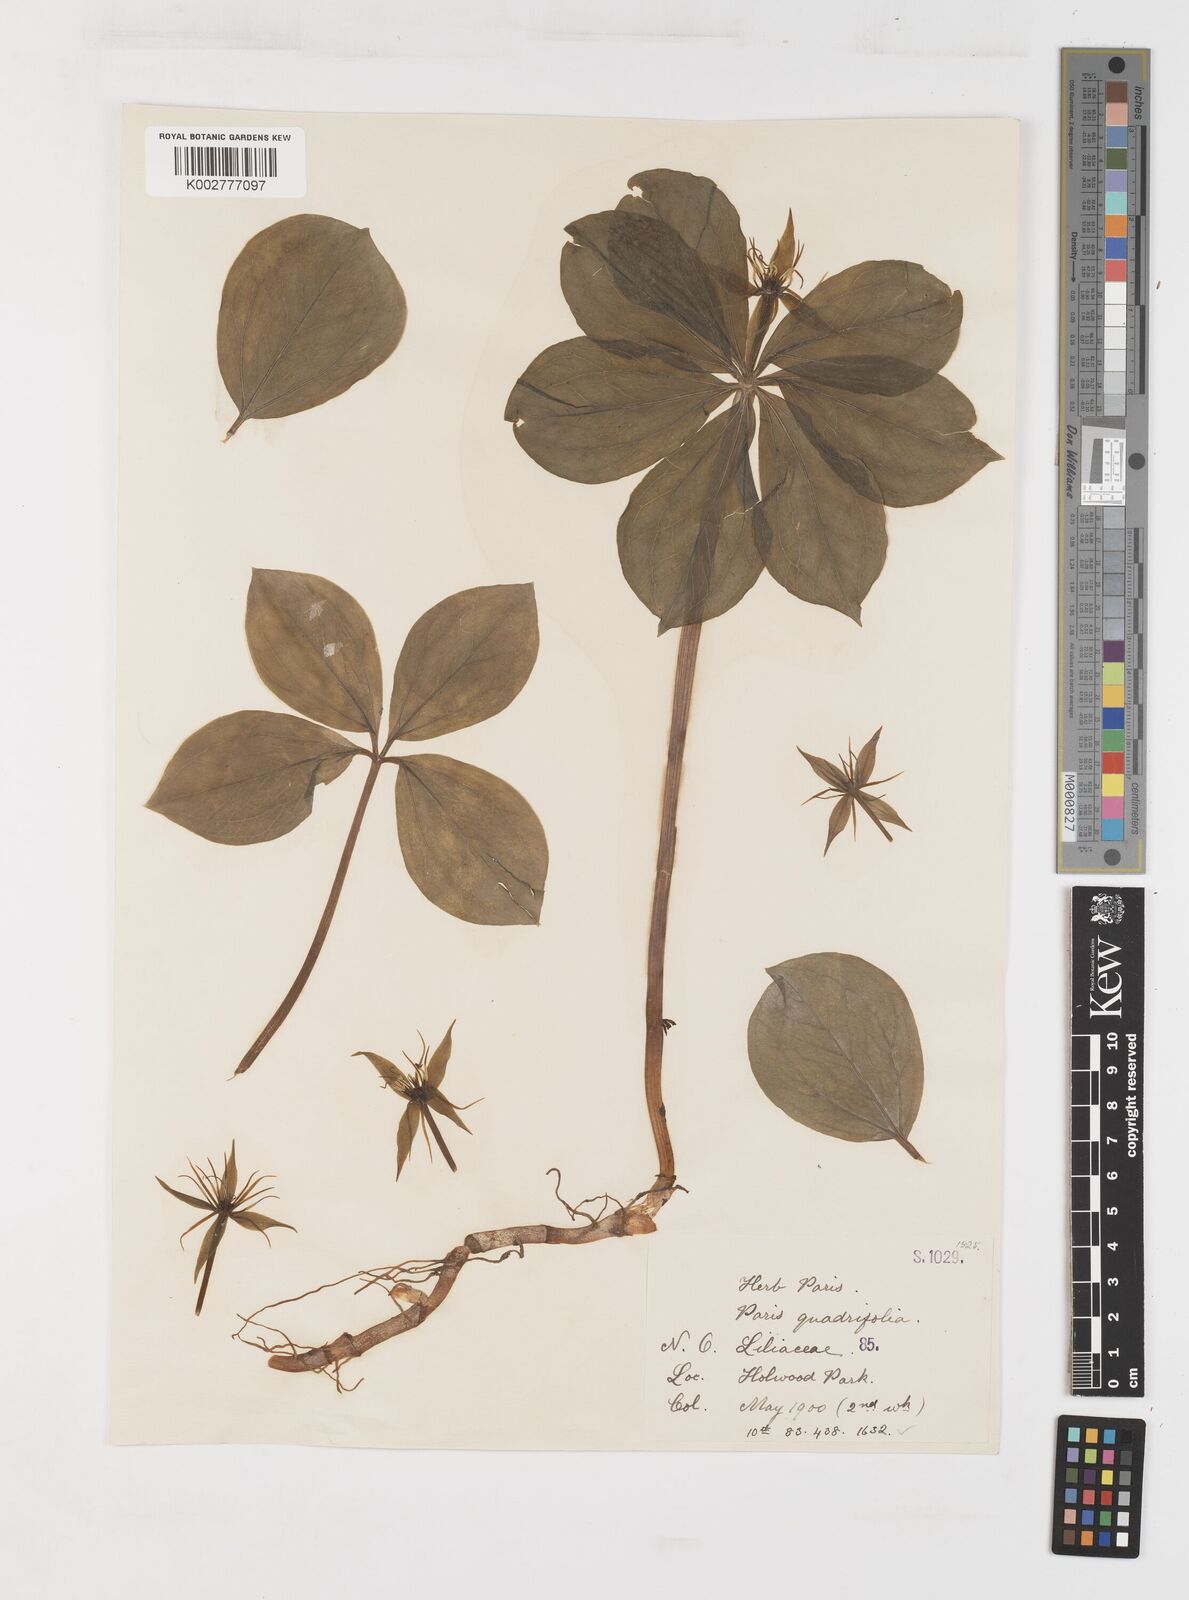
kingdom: Plantae
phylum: Tracheophyta
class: Liliopsida
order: Liliales
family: Melanthiaceae
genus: Paris
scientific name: Paris quadrifolia
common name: Herb-paris
